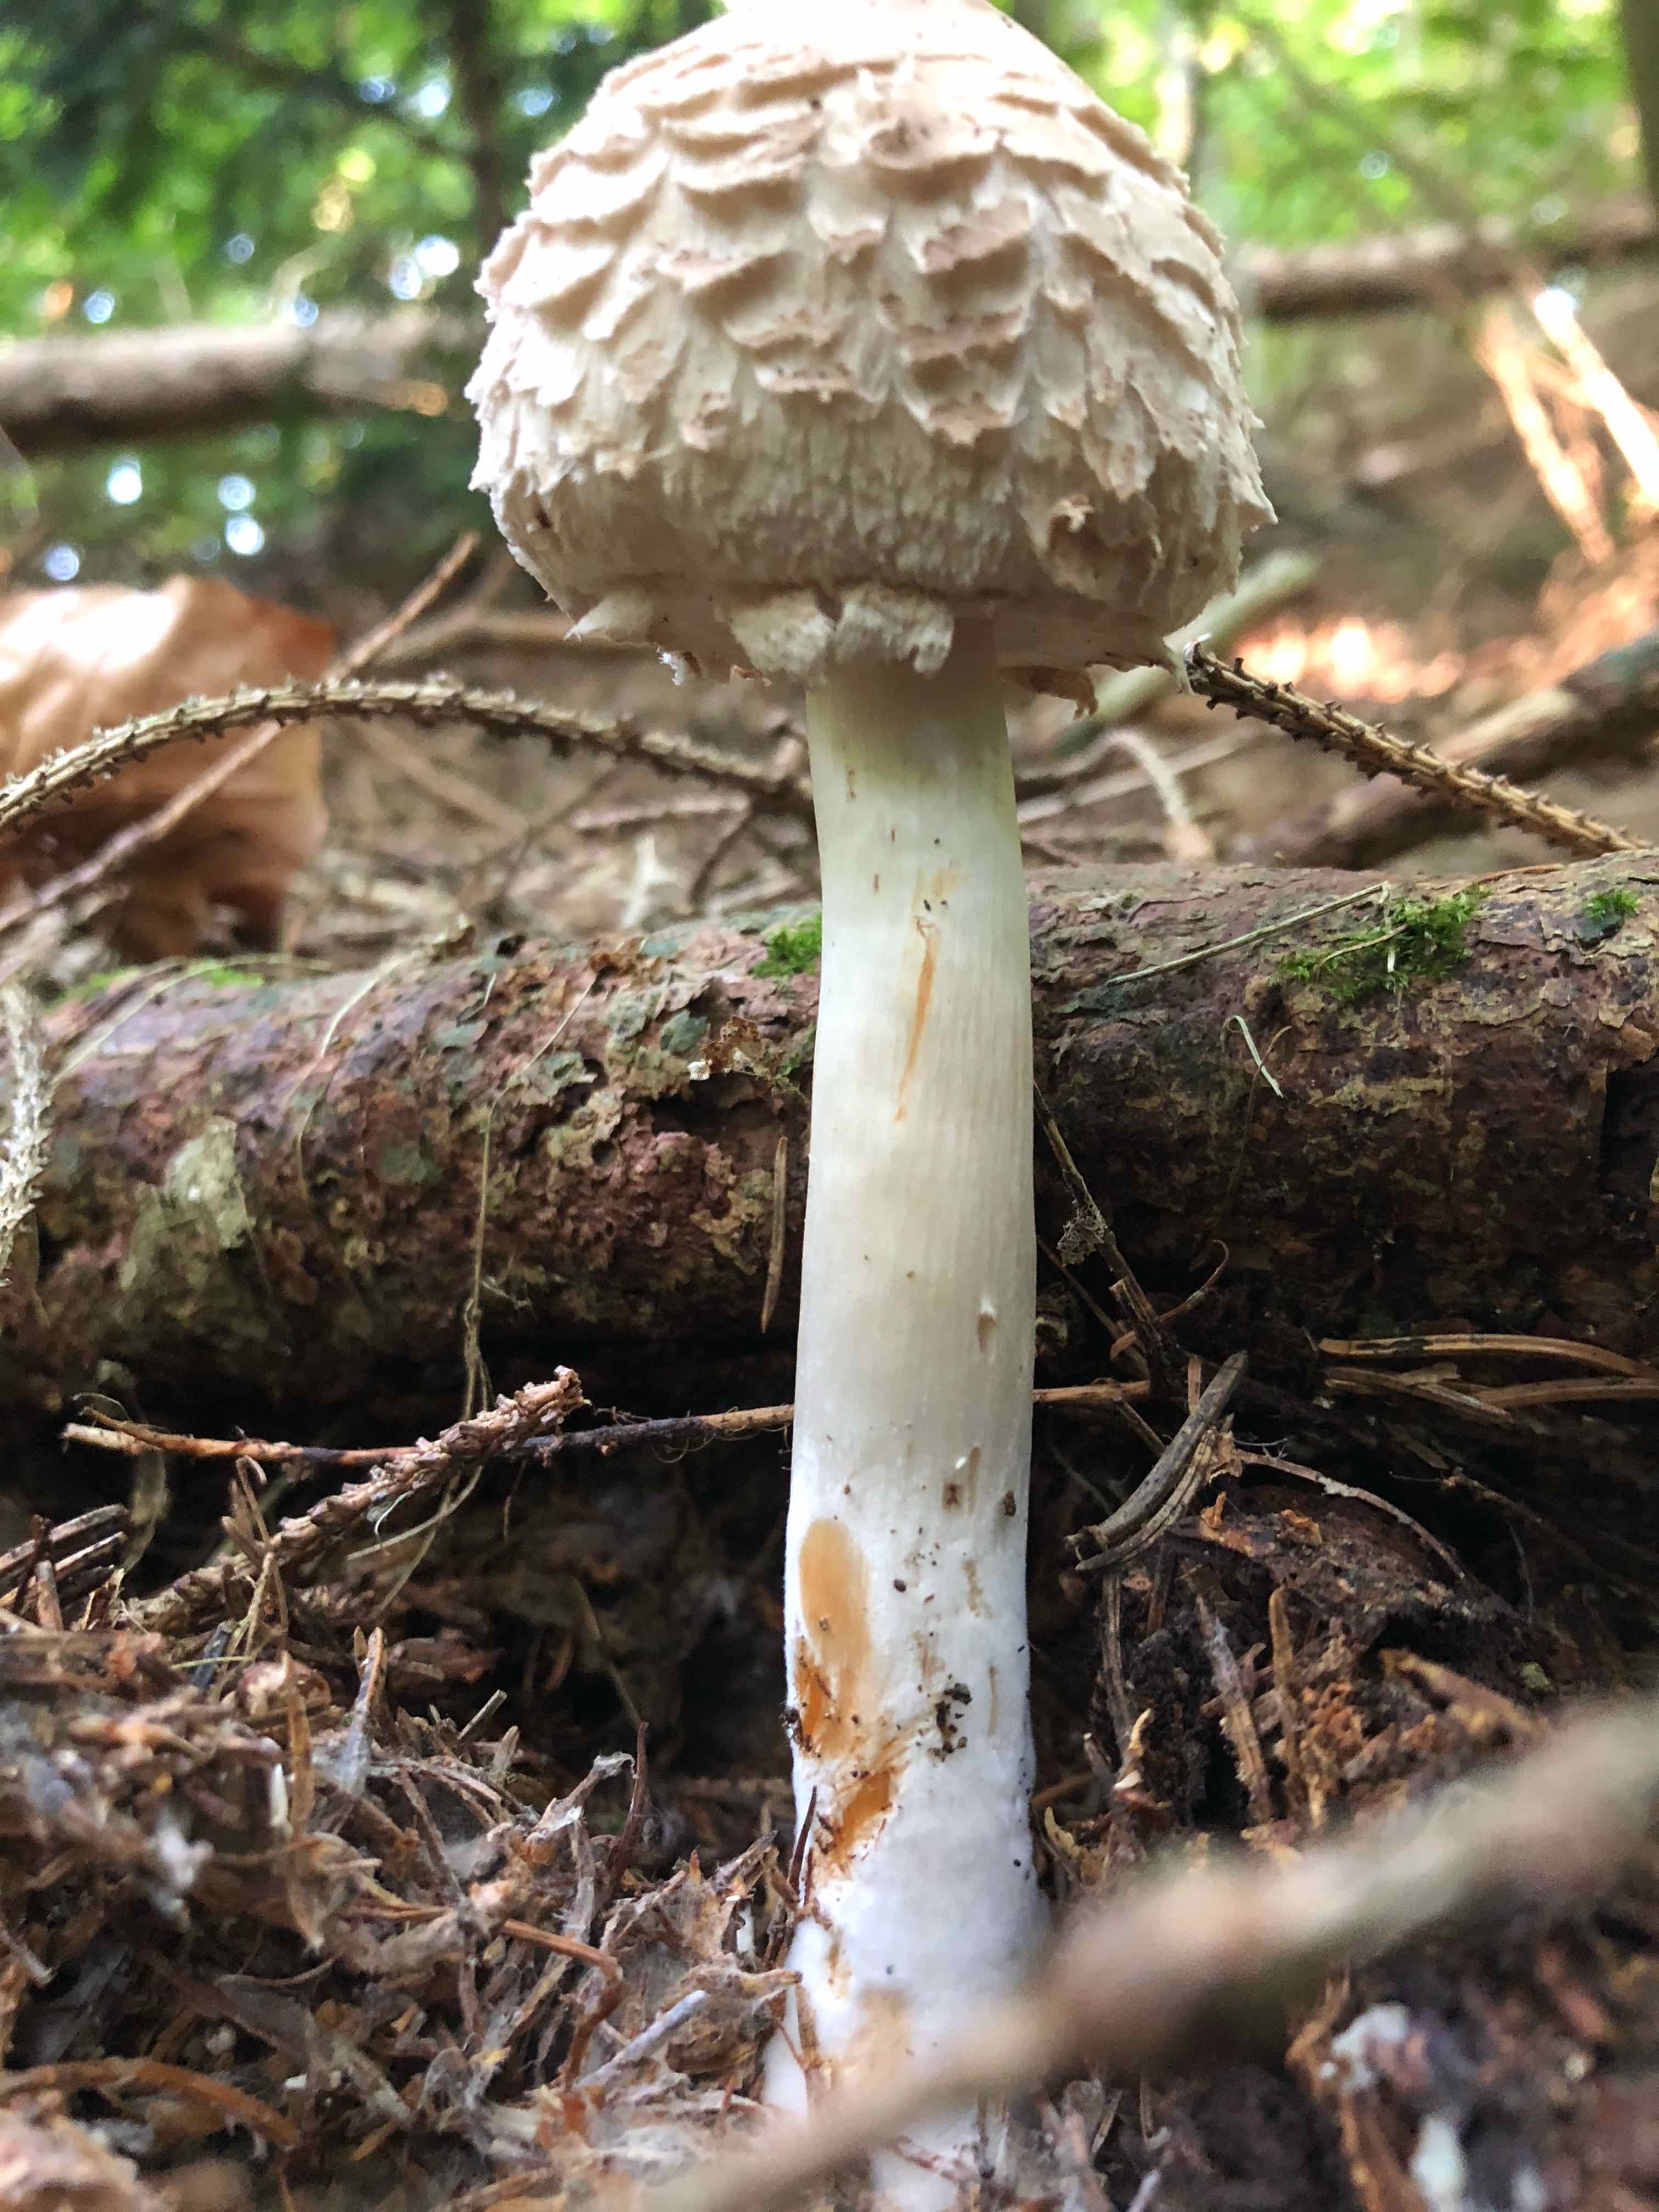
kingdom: Fungi
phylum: Basidiomycota
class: Agaricomycetes
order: Agaricales
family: Agaricaceae
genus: Chlorophyllum
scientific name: Chlorophyllum olivieri
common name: almindelig rabarberhat
